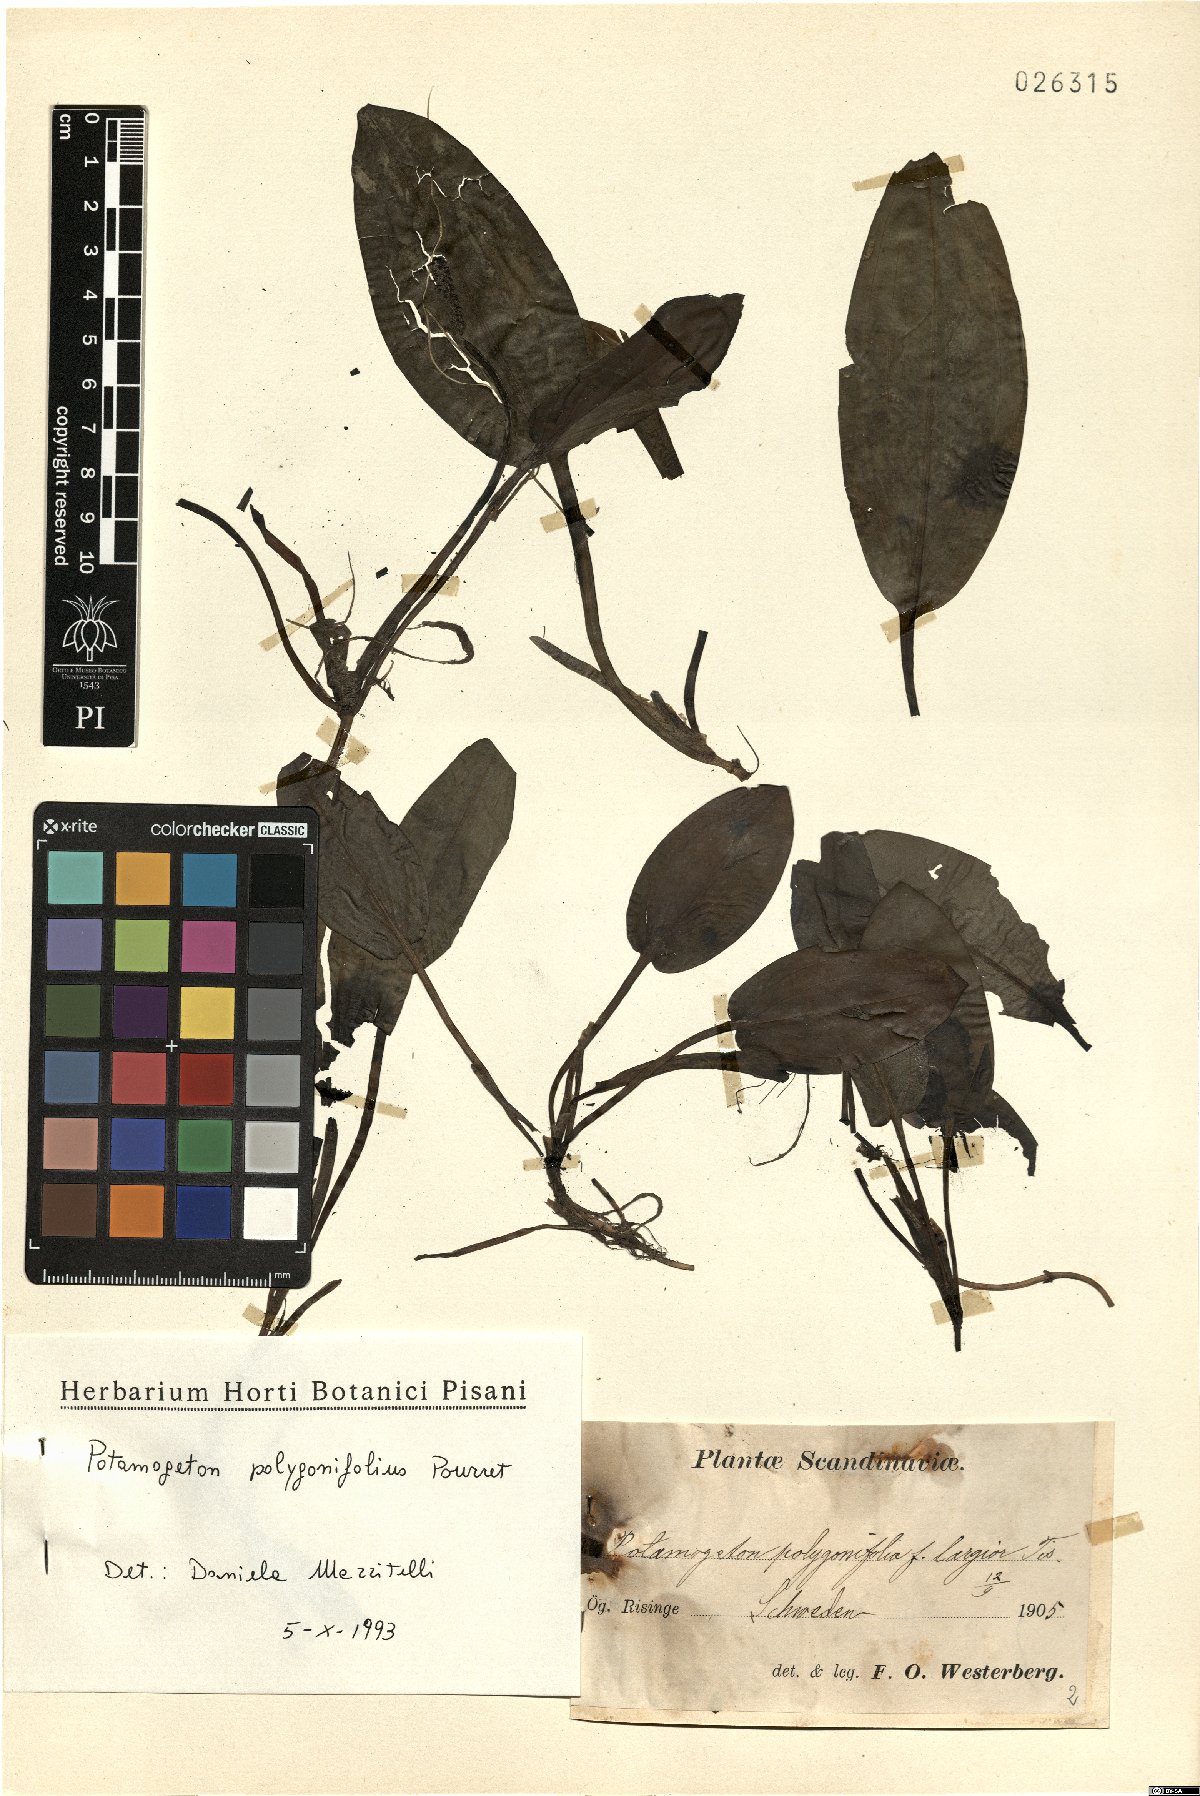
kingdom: Plantae
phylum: Tracheophyta
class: Liliopsida
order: Alismatales
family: Potamogetonaceae
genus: Potamogeton
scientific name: Potamogeton polygonifolius
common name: Bog pondweed
